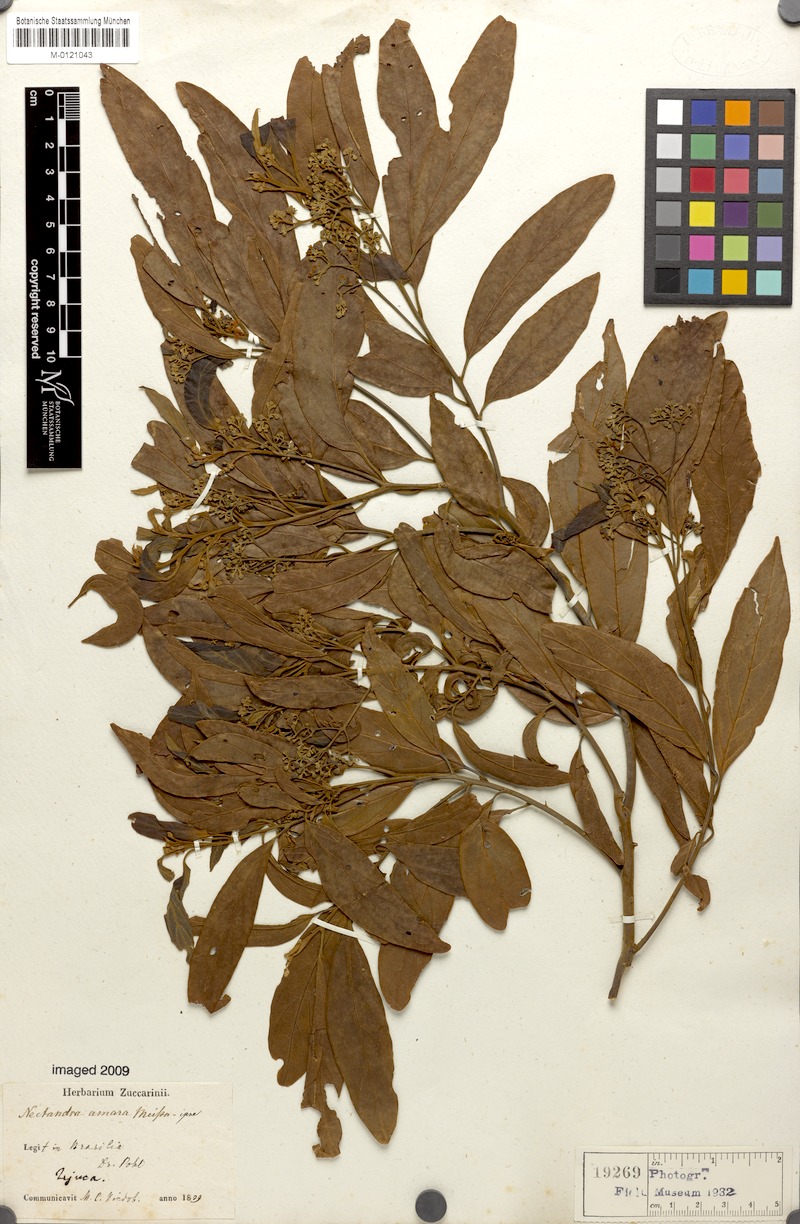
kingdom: Plantae
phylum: Tracheophyta
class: Magnoliopsida
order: Laurales
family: Lauraceae
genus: Nectandra
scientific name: Nectandra puberula
